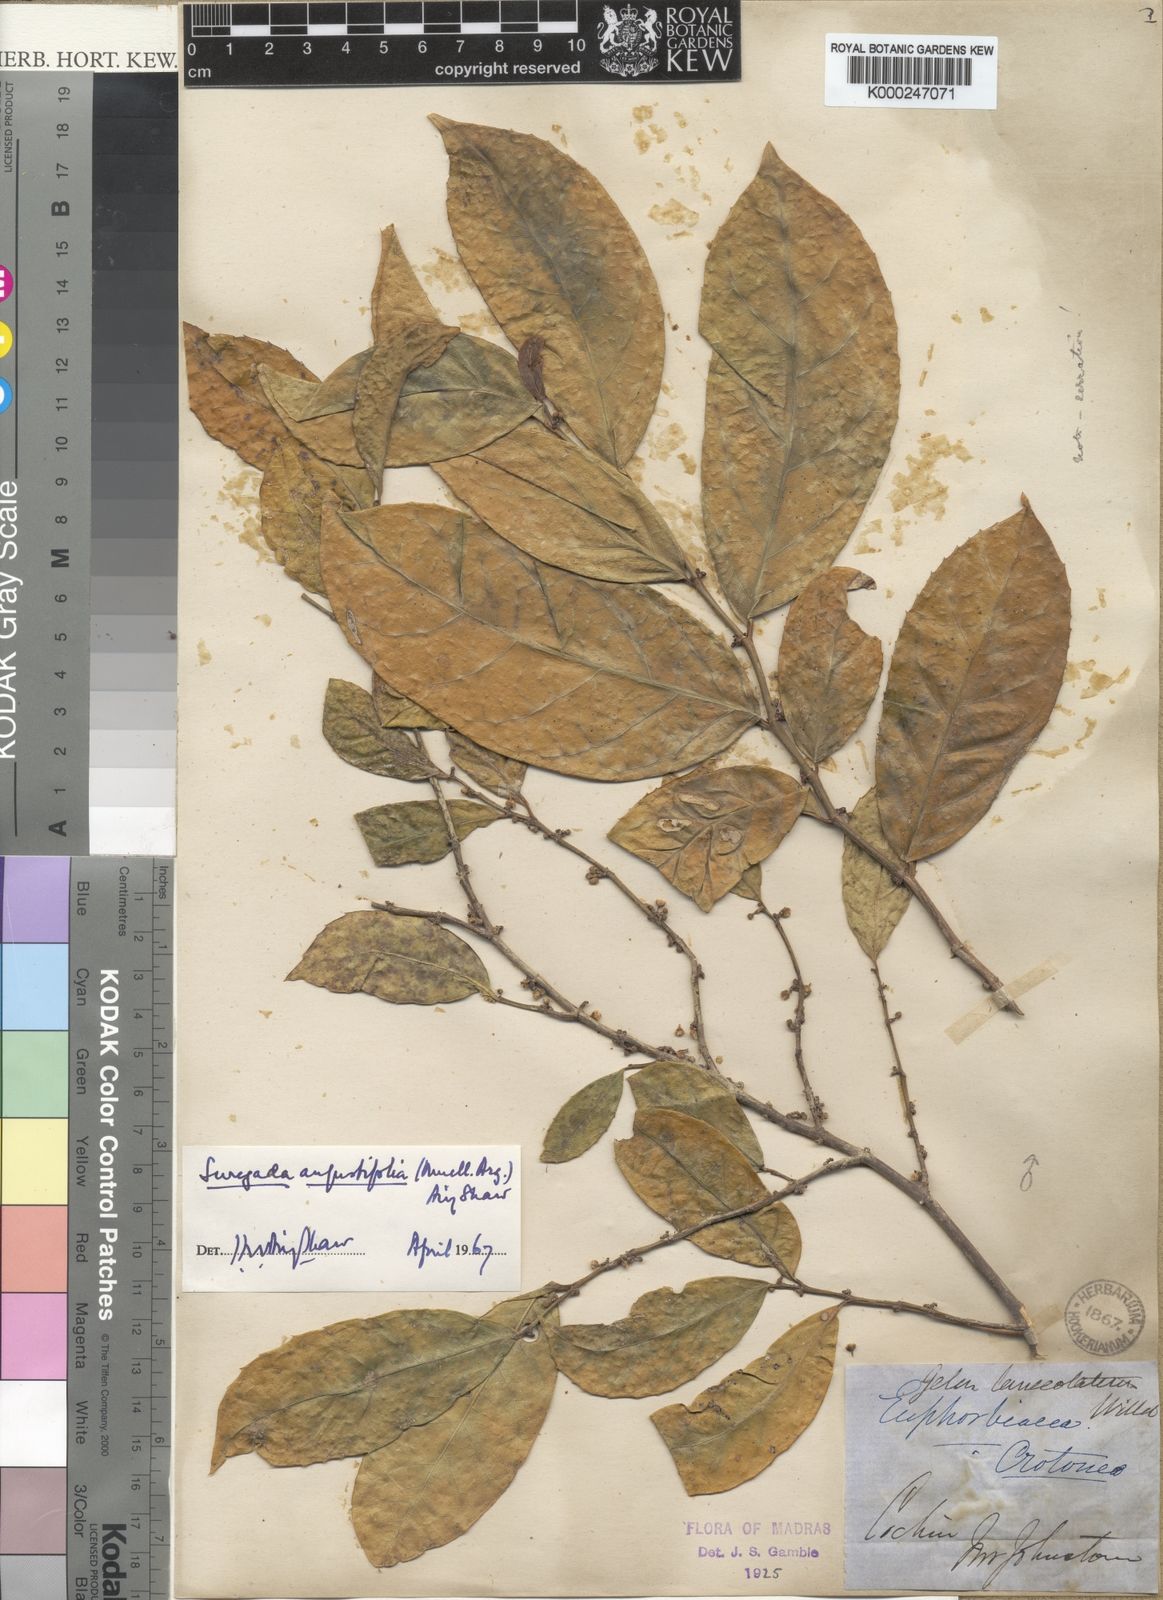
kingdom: Plantae
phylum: Tracheophyta
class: Magnoliopsida
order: Malpighiales
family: Euphorbiaceae
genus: Suregada
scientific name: Suregada
